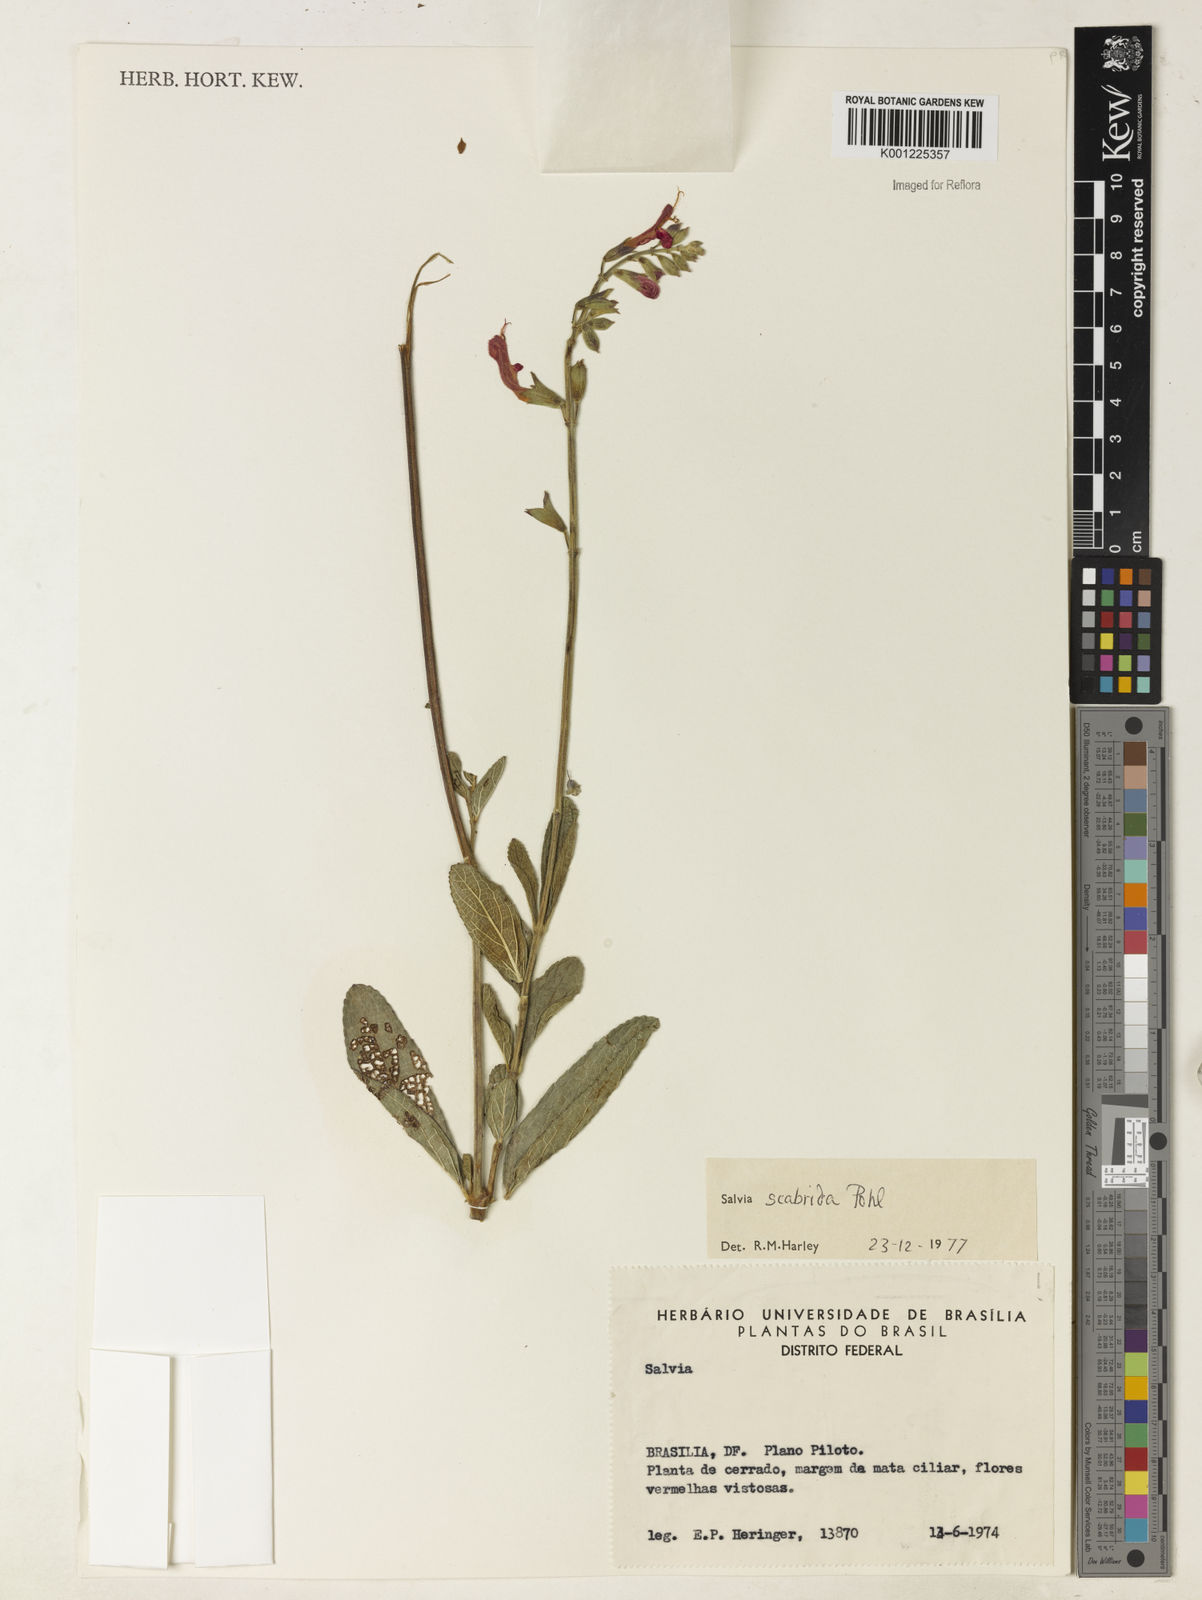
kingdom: Plantae
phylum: Tracheophyta
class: Magnoliopsida
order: Lamiales
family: Lamiaceae
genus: Salvia
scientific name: Salvia scabrida
